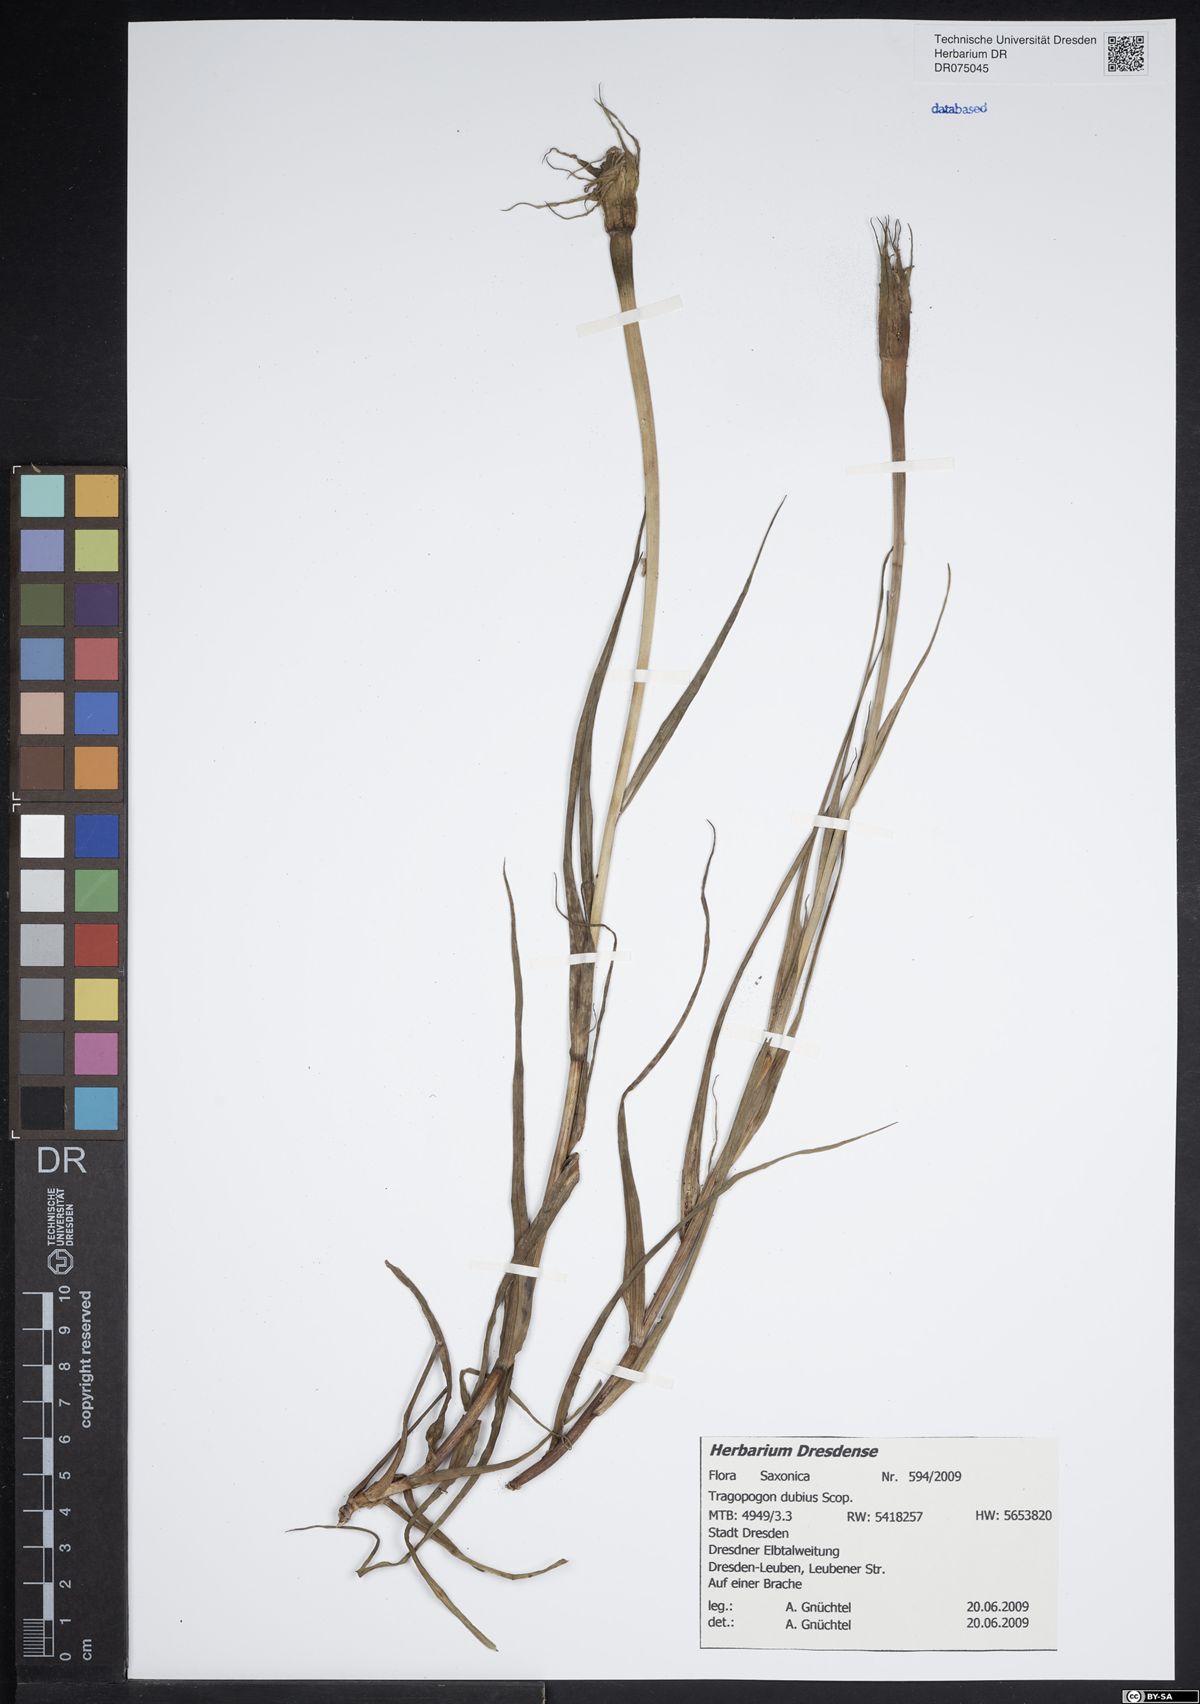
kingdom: Plantae
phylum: Tracheophyta
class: Magnoliopsida
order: Asterales
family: Asteraceae
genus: Tragopogon
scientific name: Tragopogon dubius
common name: Yellow salsify
